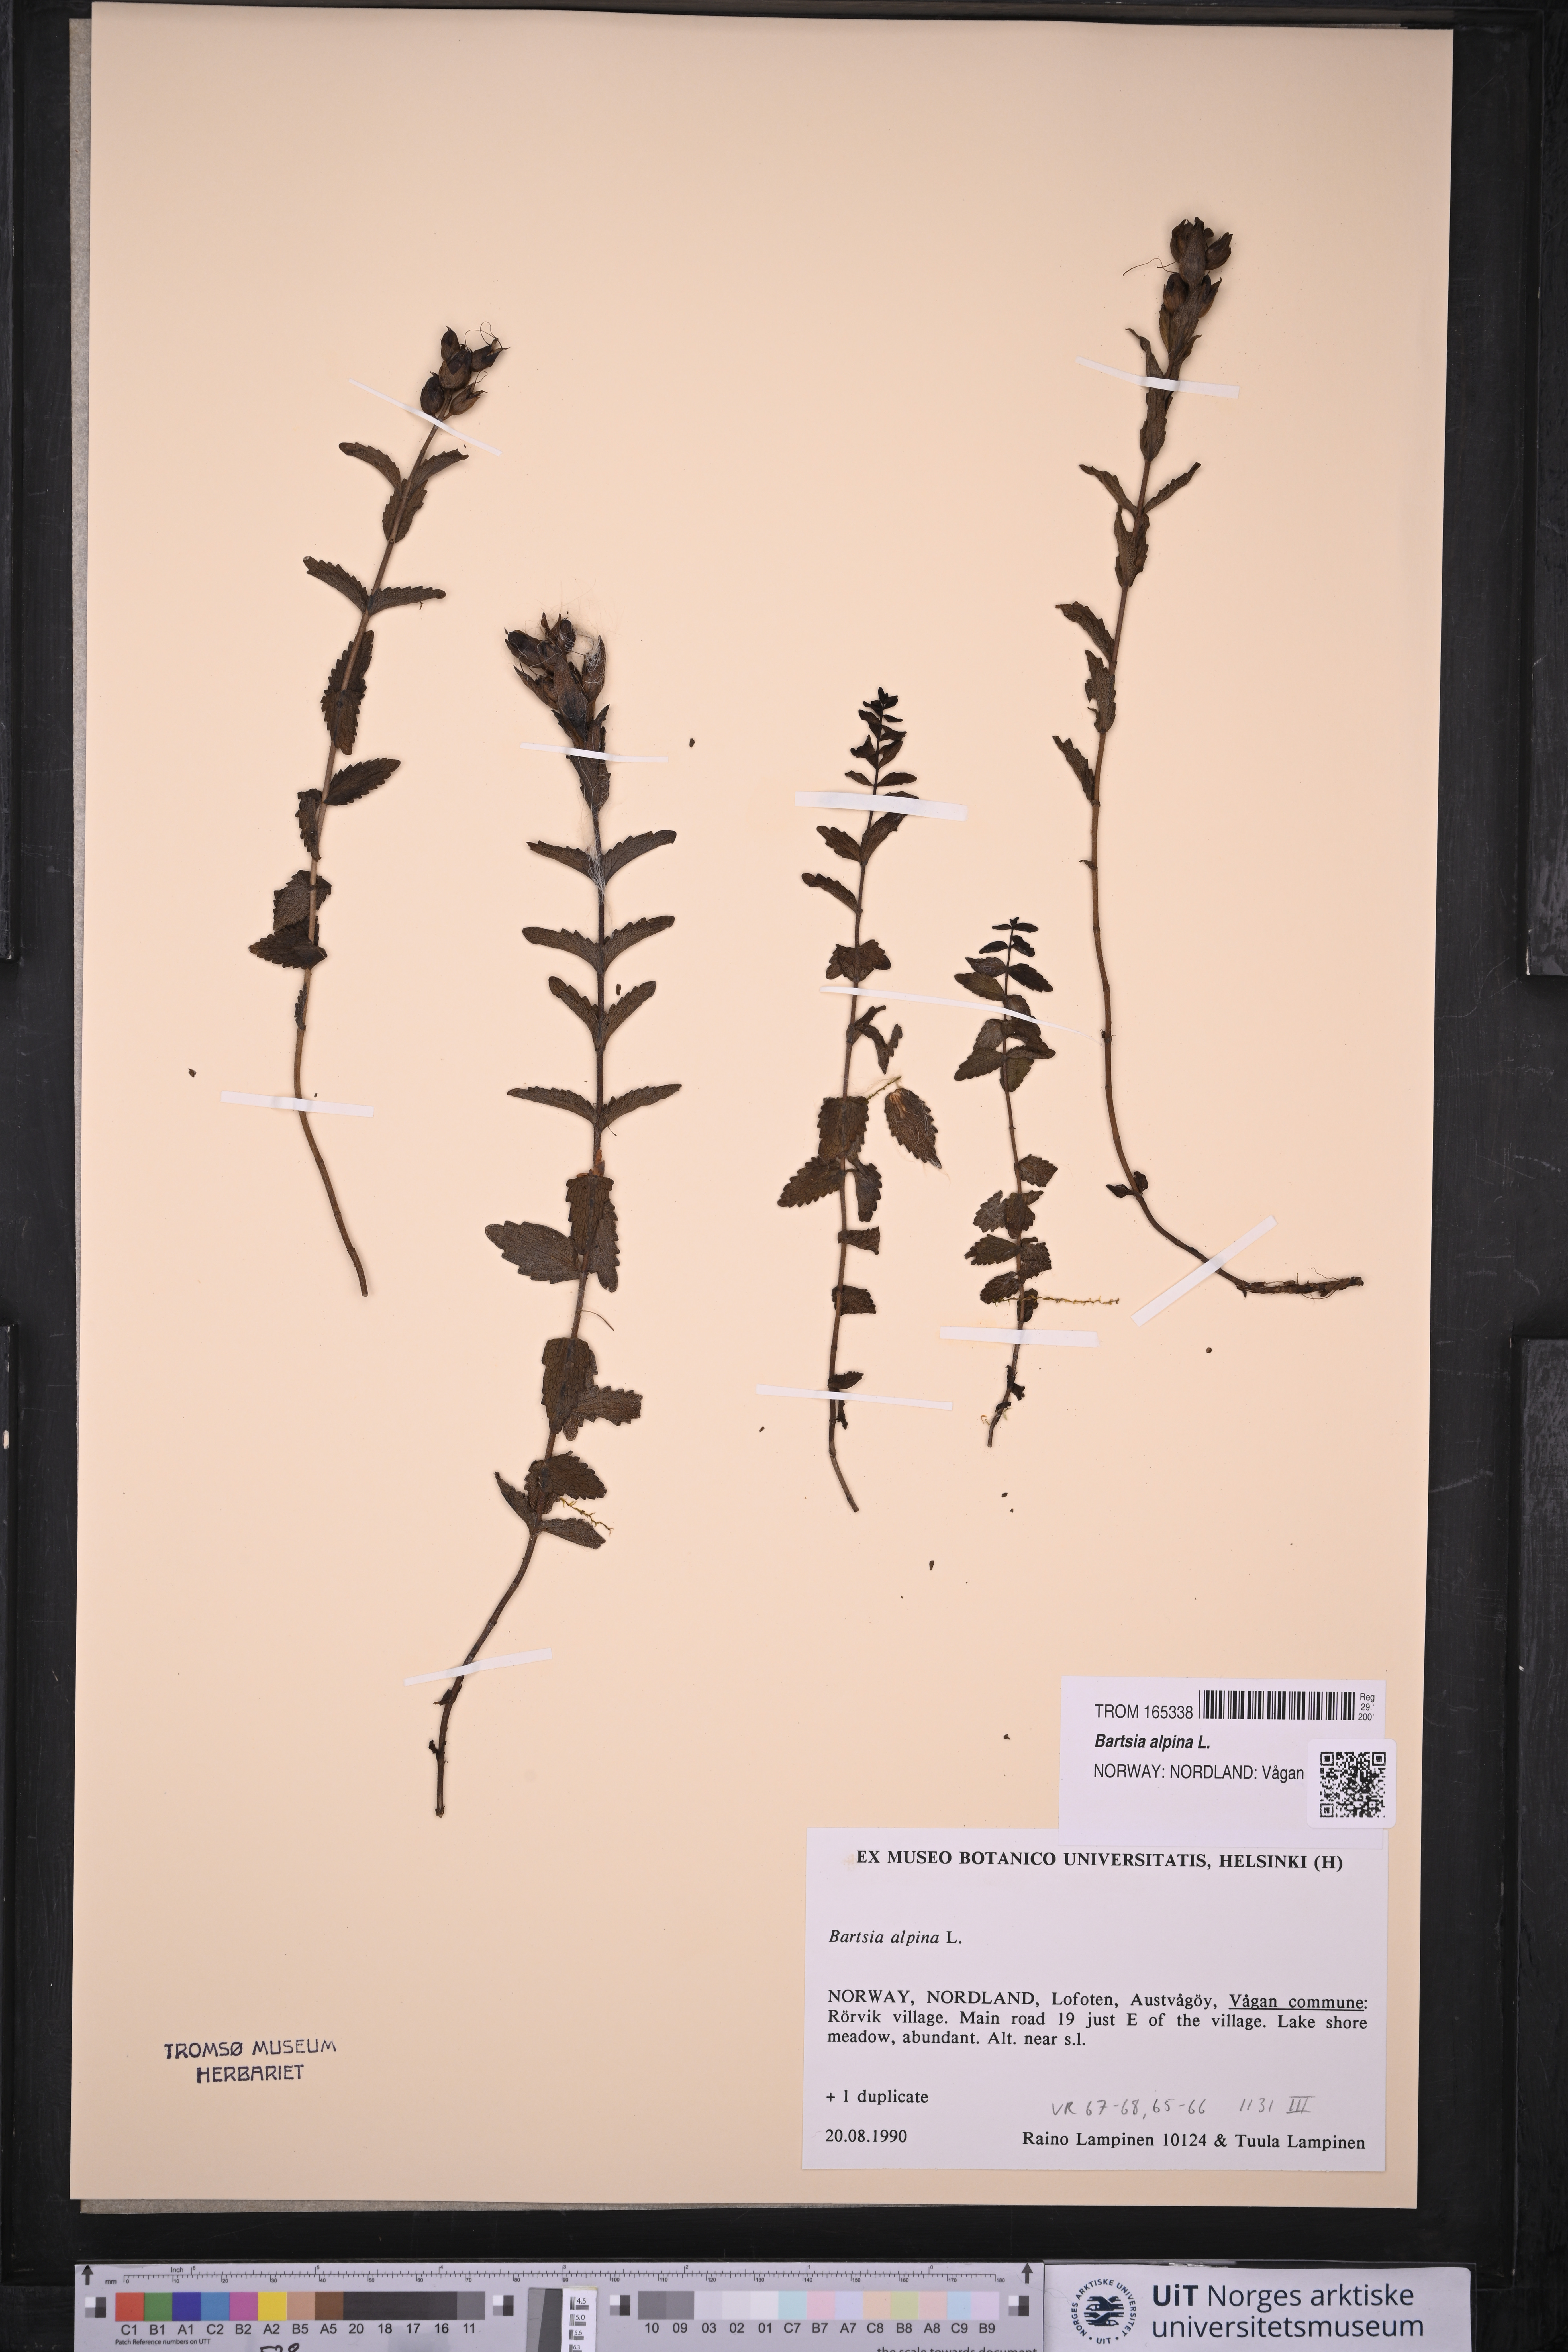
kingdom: Plantae
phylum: Tracheophyta
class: Magnoliopsida
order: Lamiales
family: Orobanchaceae
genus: Bartsia
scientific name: Bartsia alpina
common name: Alpine bartsia
